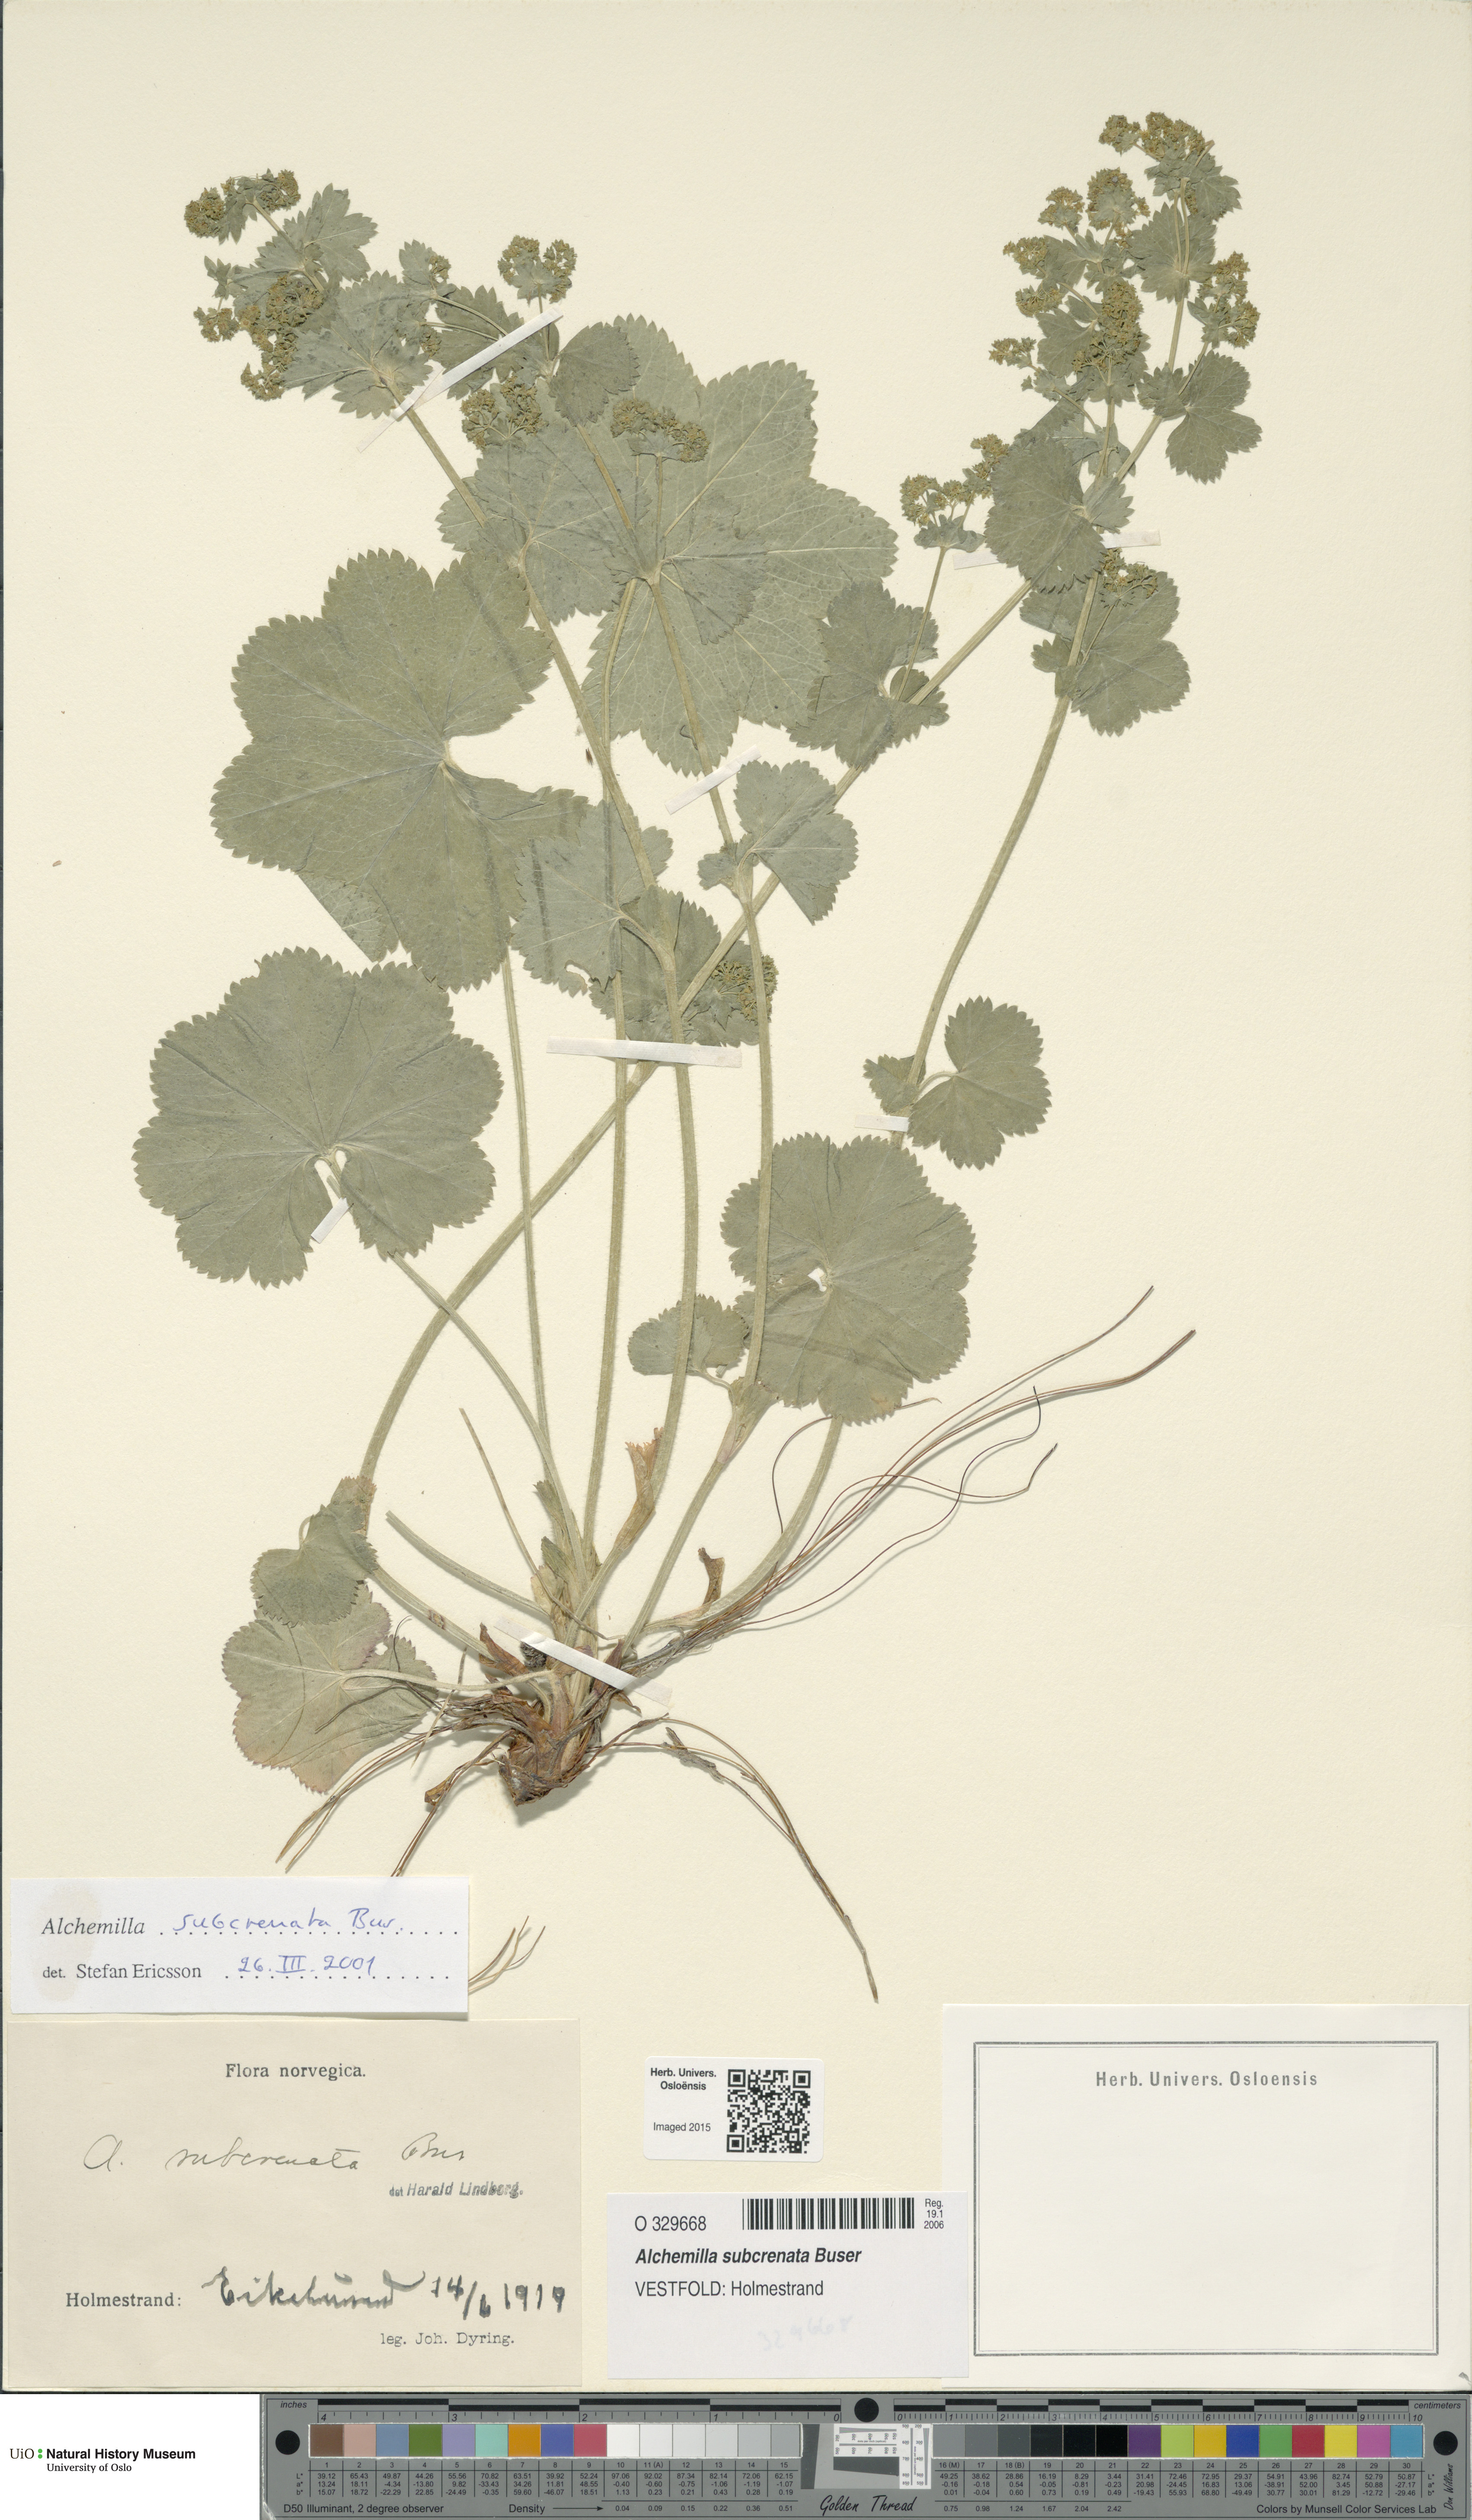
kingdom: Plantae
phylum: Tracheophyta
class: Magnoliopsida
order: Rosales
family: Rosaceae
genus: Alchemilla
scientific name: Alchemilla subcrenata
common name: Broadtooth lady's mantle
